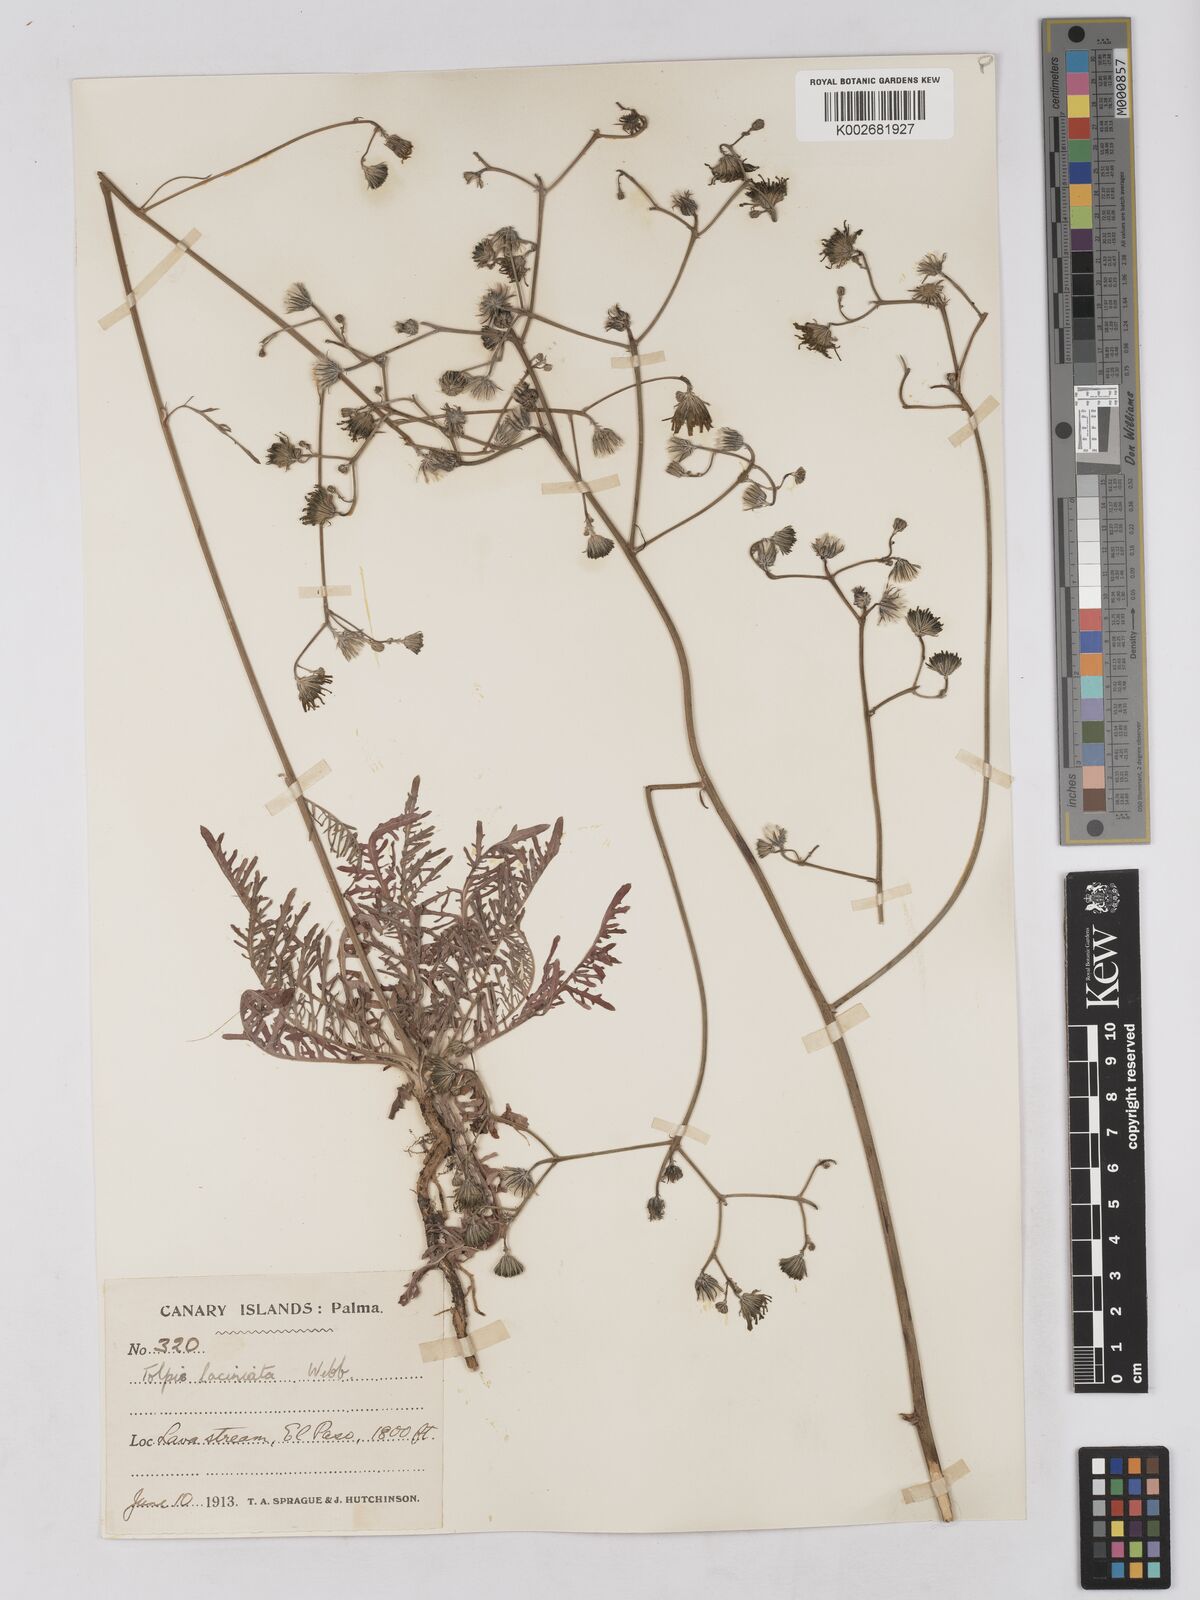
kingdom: Plantae
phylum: Tracheophyta
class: Magnoliopsida
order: Asterales
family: Asteraceae
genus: Tolpis
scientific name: Tolpis laciniata
